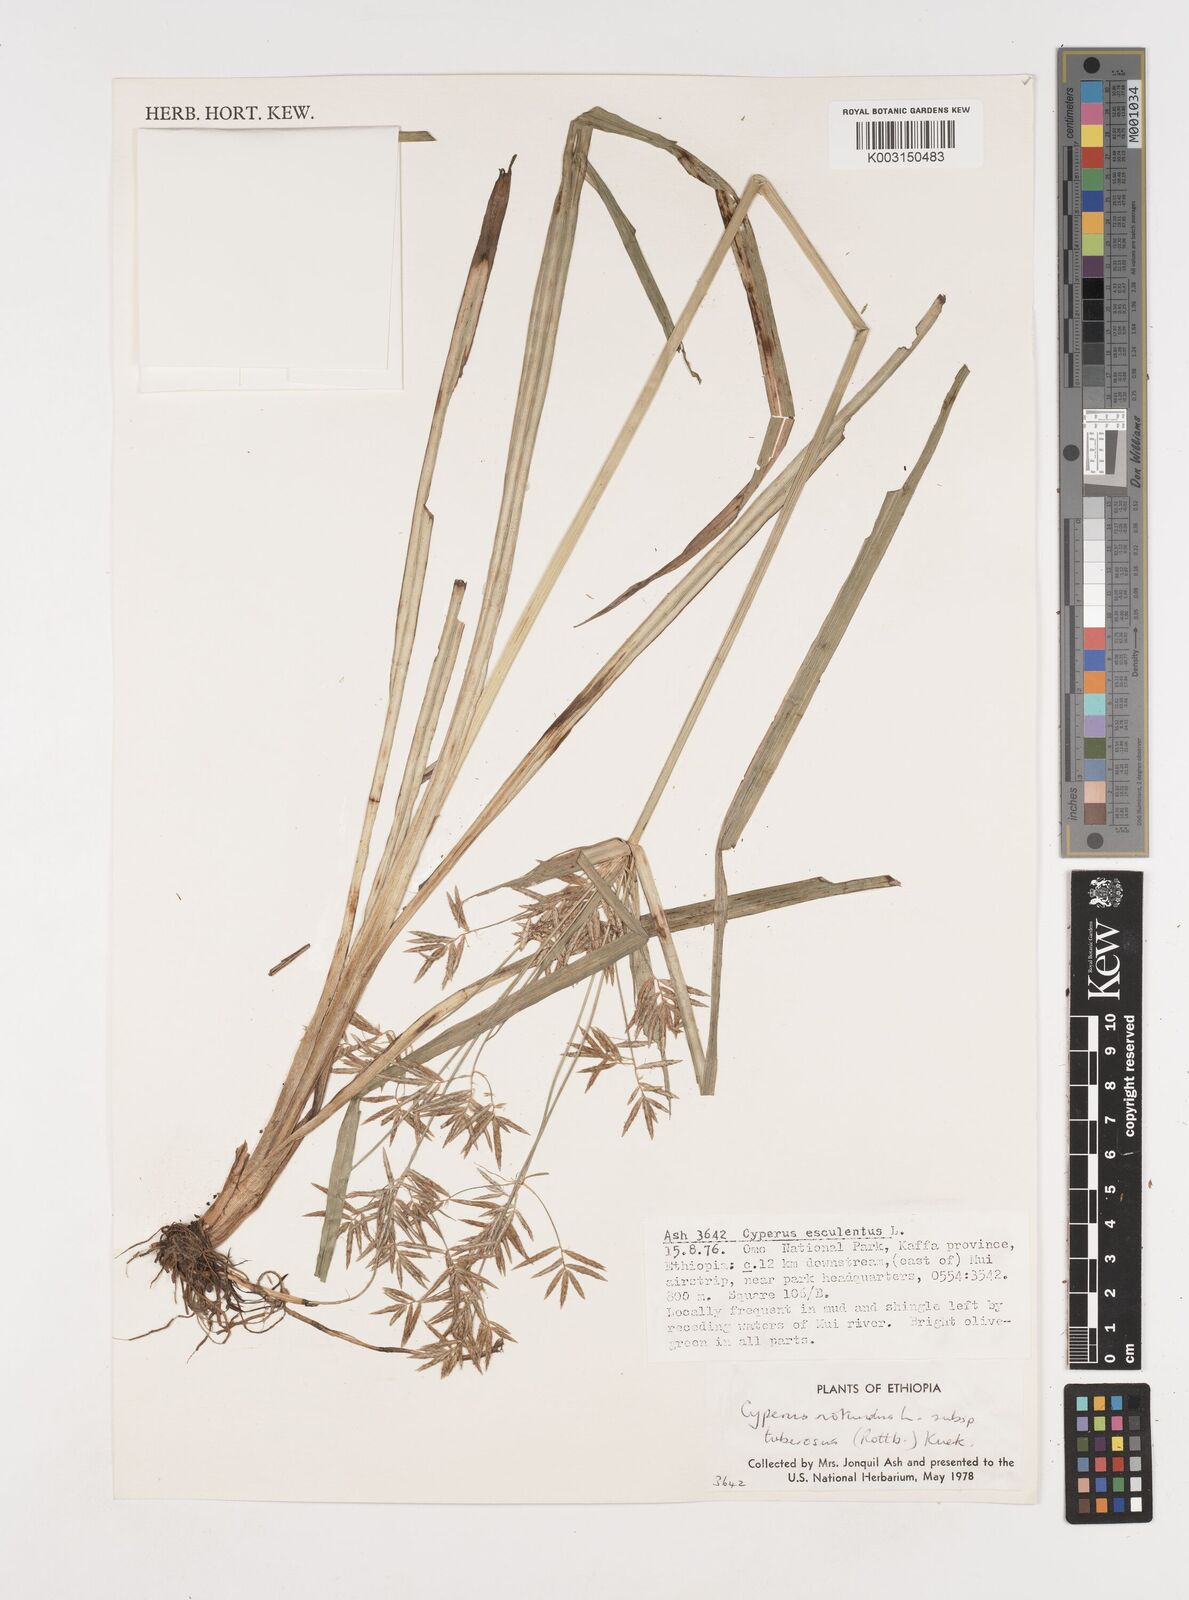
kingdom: Plantae
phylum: Tracheophyta
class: Liliopsida
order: Poales
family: Cyperaceae
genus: Cyperus
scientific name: Cyperus rotundus
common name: Nutgrass
